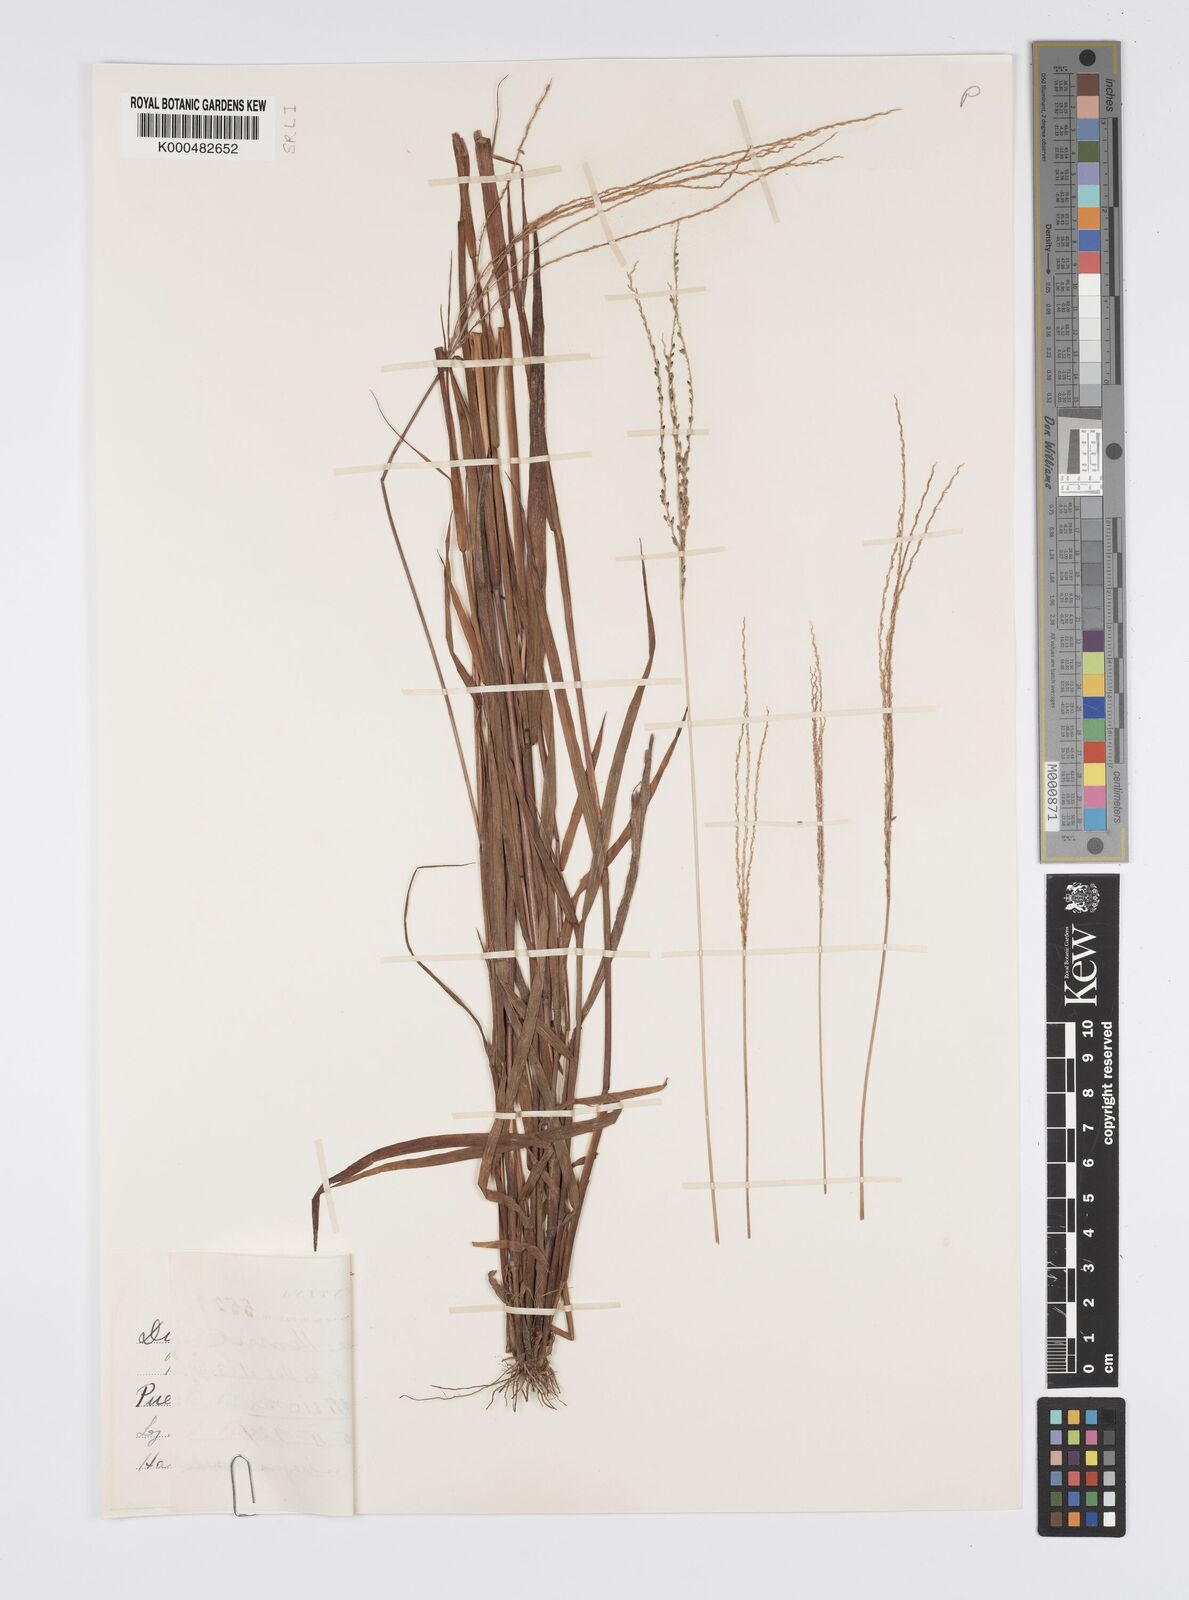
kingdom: Plantae
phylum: Tracheophyta
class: Liliopsida
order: Poales
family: Poaceae
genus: Digitaria
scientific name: Digitaria balansae
